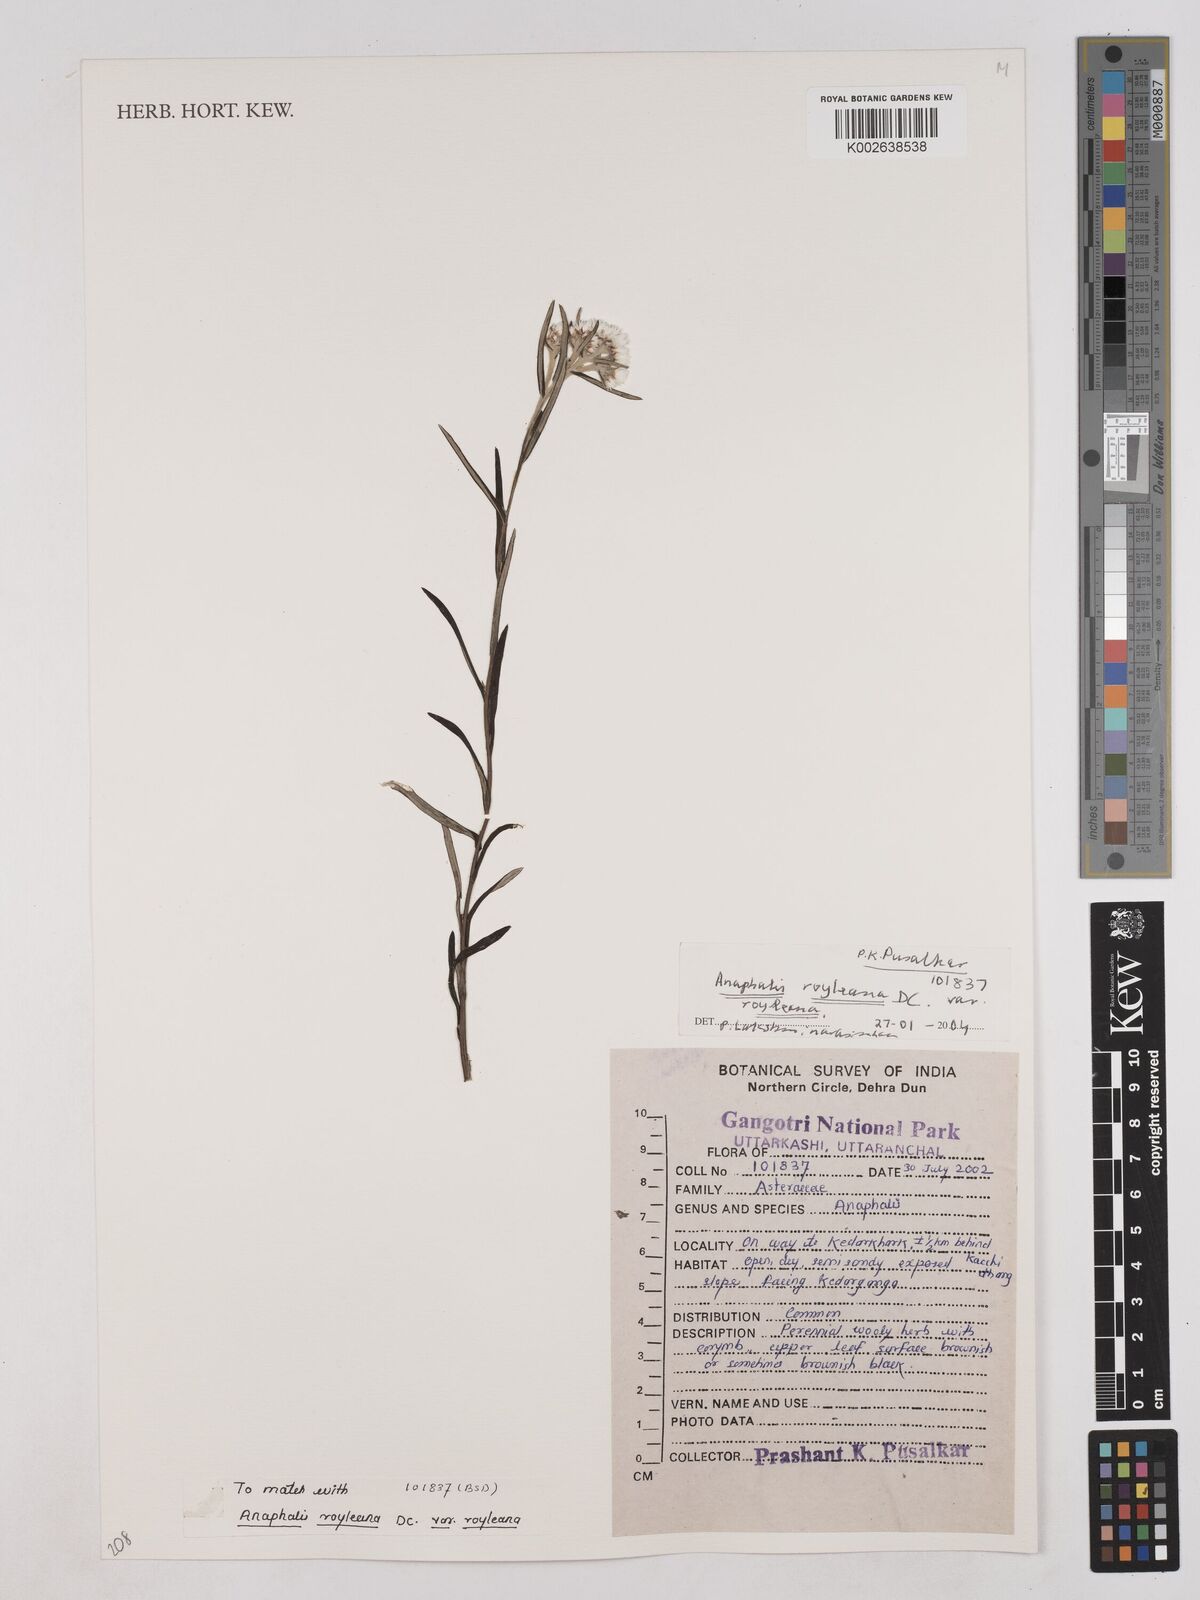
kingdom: Plantae
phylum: Tracheophyta
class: Magnoliopsida
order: Asterales
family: Asteraceae
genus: Anaphalis
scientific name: Anaphalis royleana
